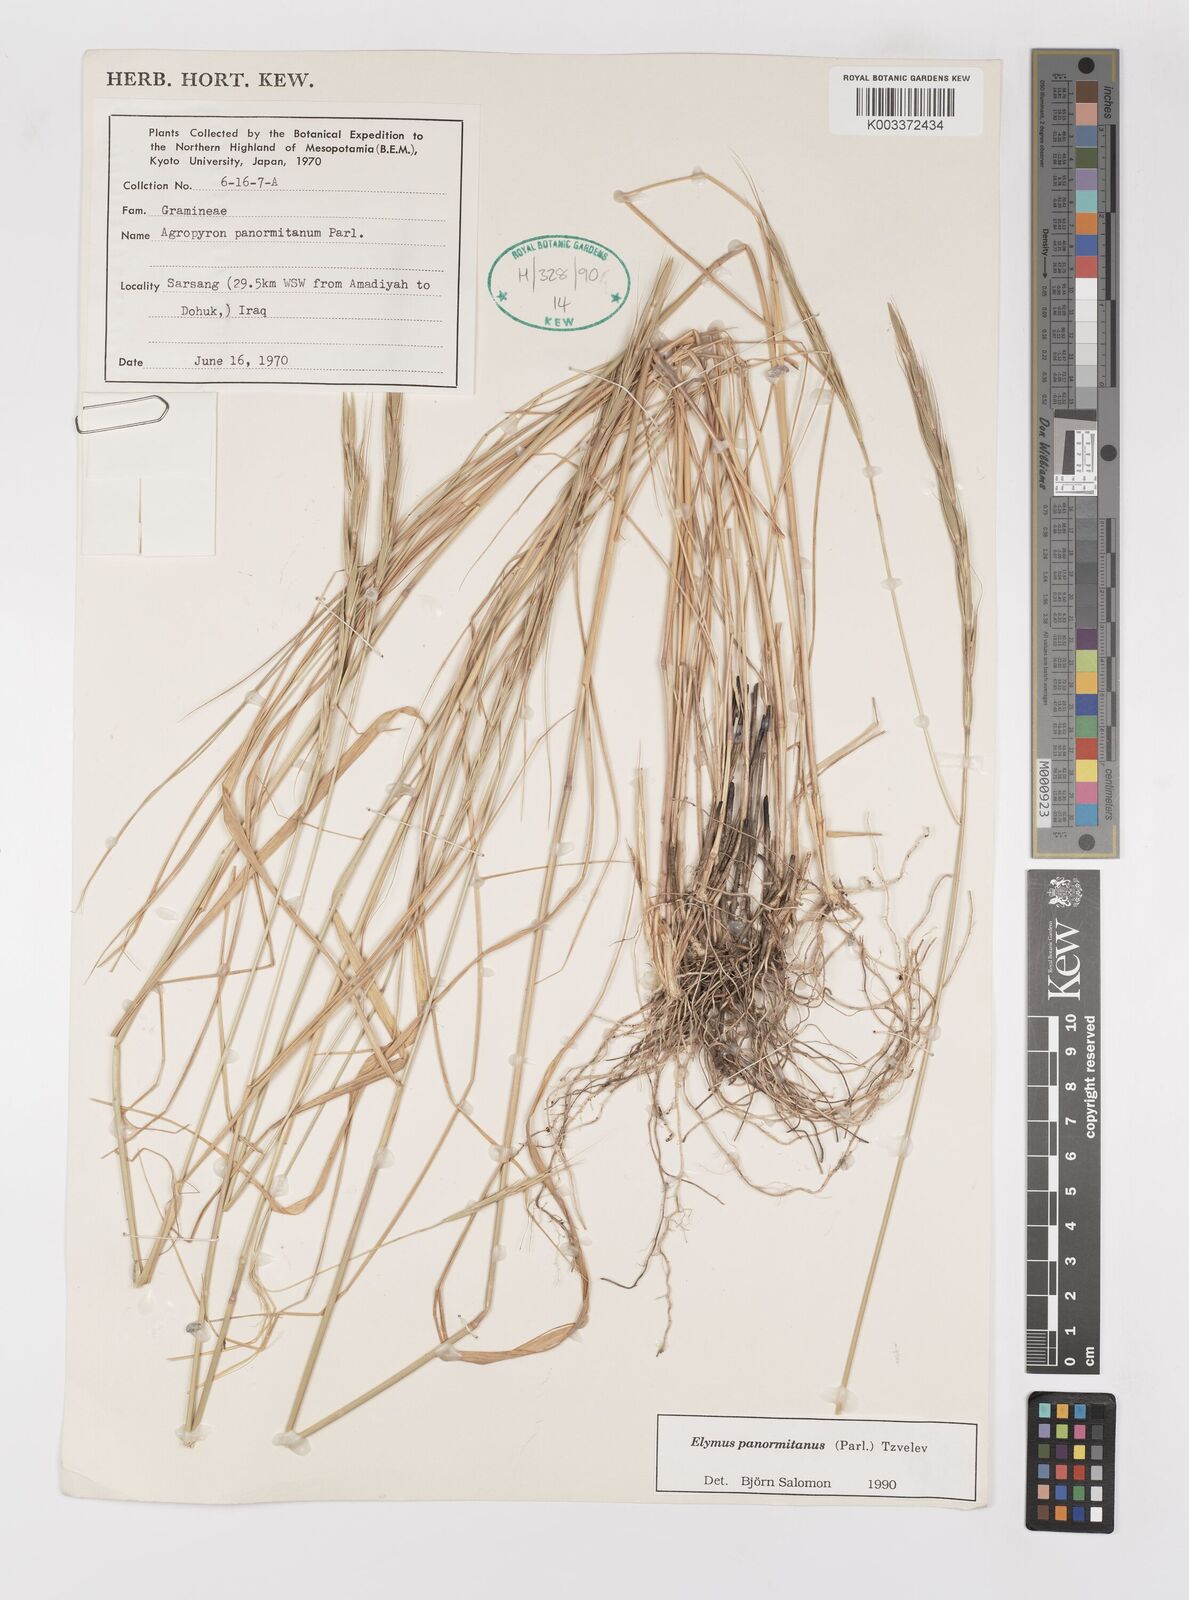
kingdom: Plantae
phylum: Tracheophyta
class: Liliopsida
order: Poales
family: Poaceae
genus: Elymus
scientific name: Elymus panormitanus
